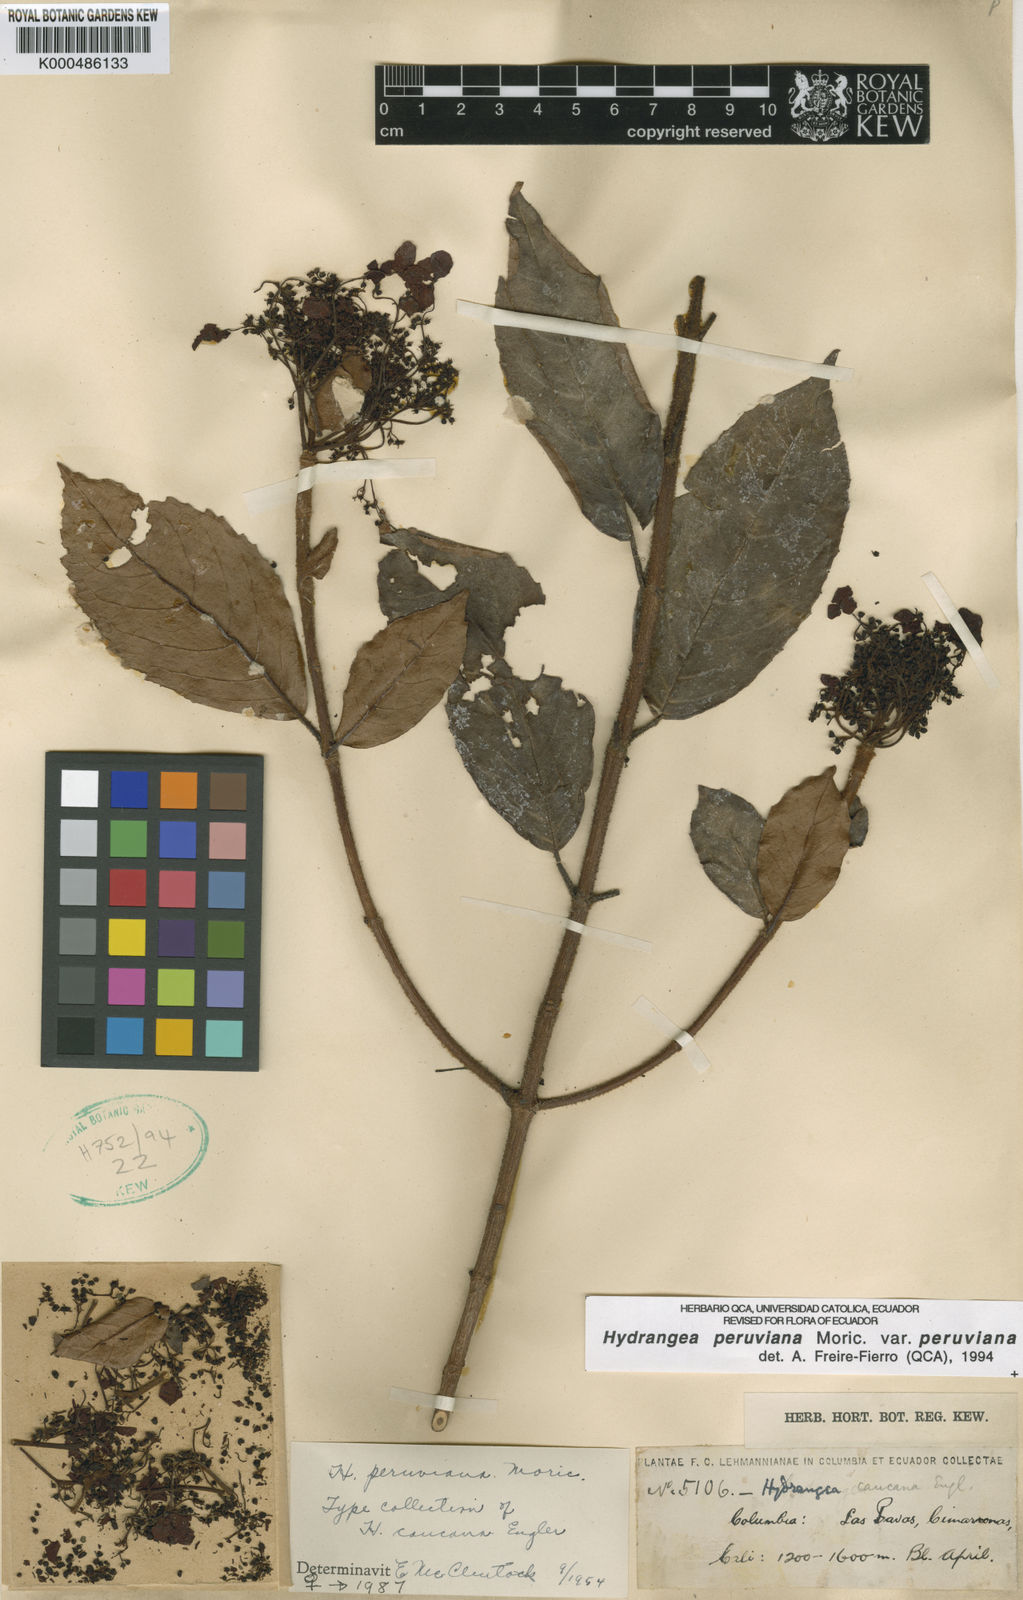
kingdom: Plantae
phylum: Tracheophyta
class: Magnoliopsida
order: Cornales
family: Hydrangeaceae
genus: Hydrangea
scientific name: Hydrangea
